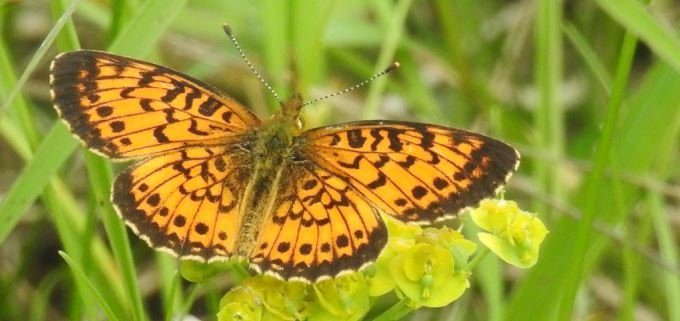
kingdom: Animalia
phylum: Arthropoda
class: Insecta
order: Lepidoptera
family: Nymphalidae
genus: Boloria
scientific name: Boloria selene
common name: Silver-bordered Fritillary
